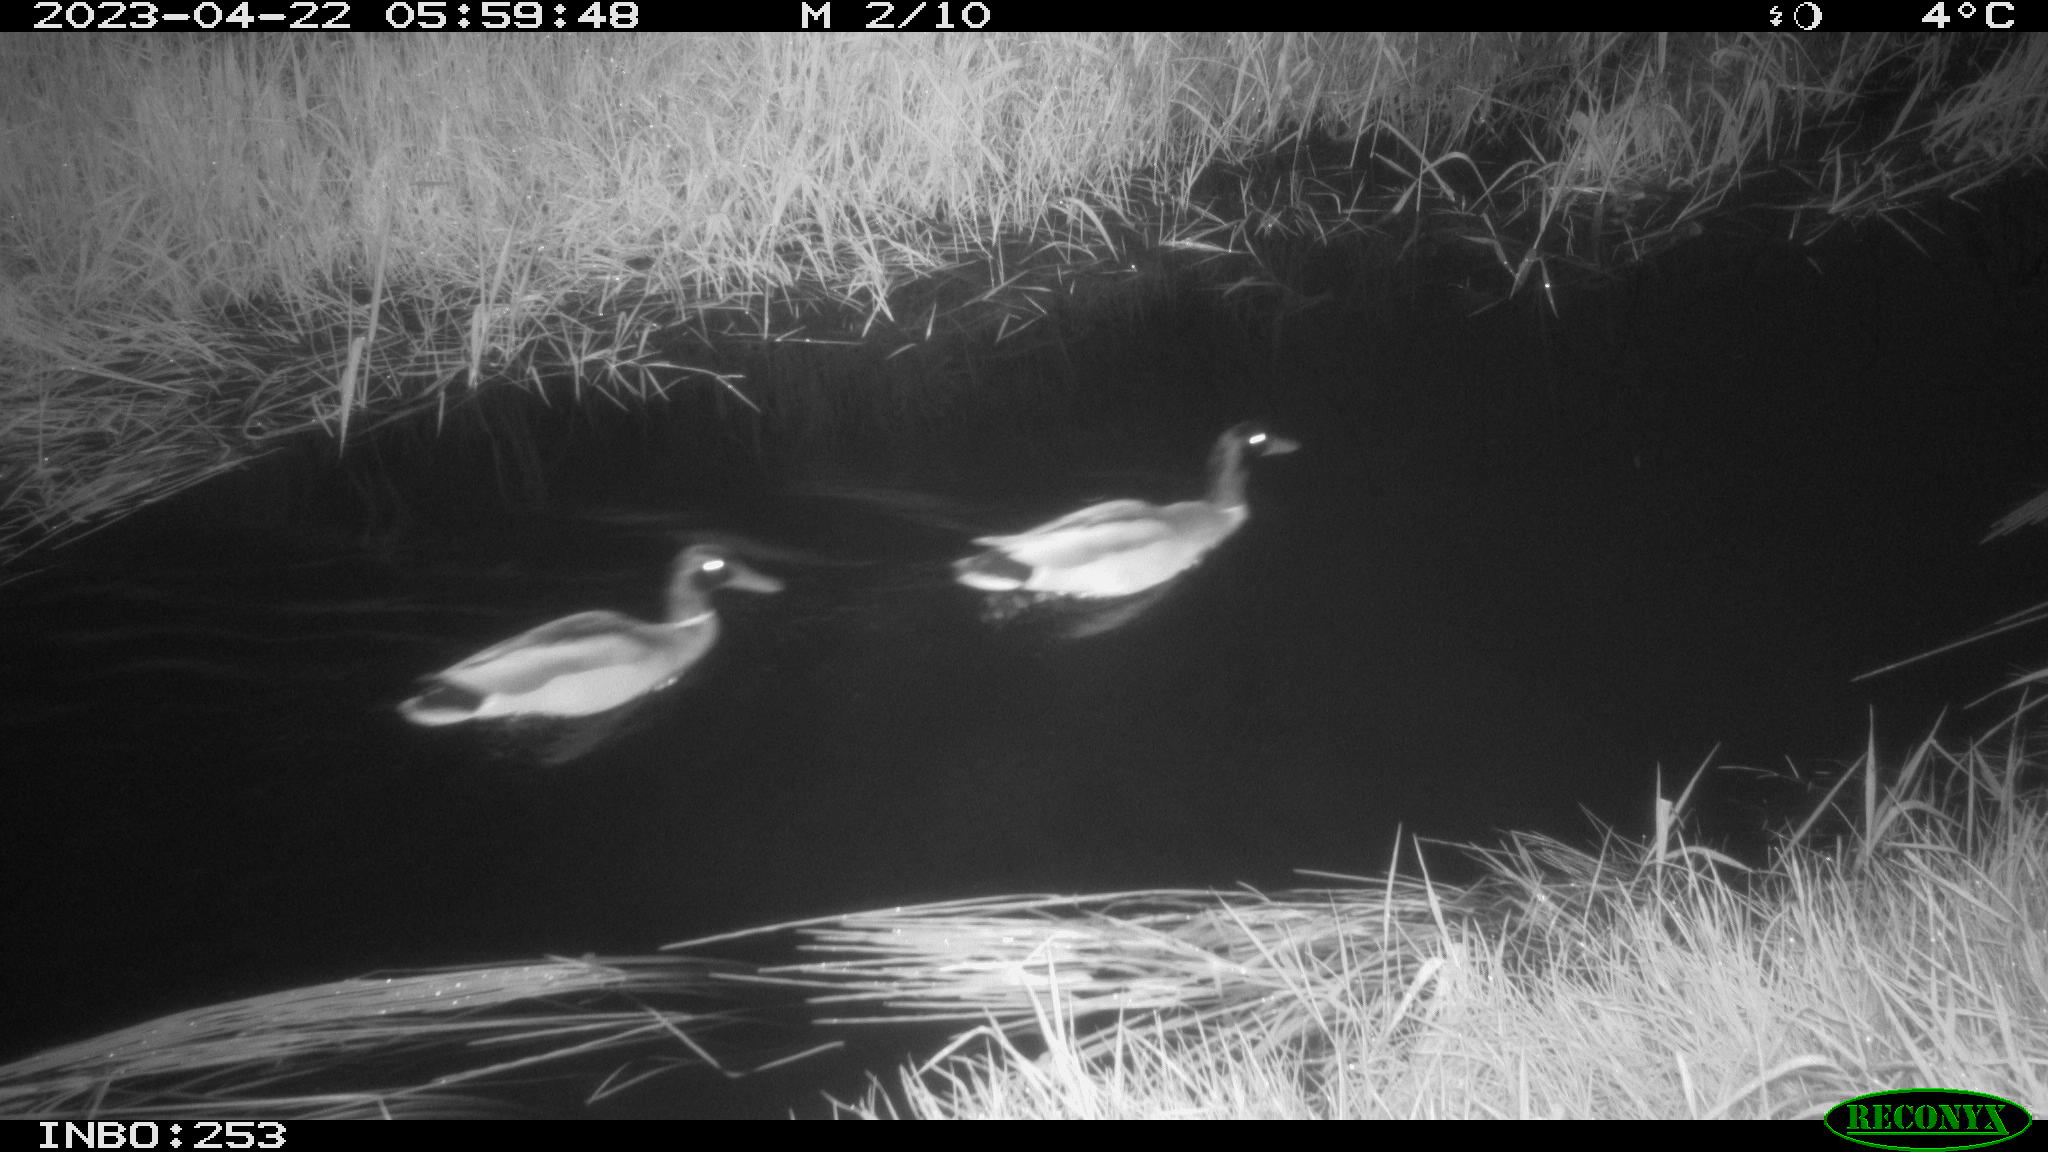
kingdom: Animalia
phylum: Chordata
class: Aves
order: Anseriformes
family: Anatidae
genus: Anas
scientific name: Anas
